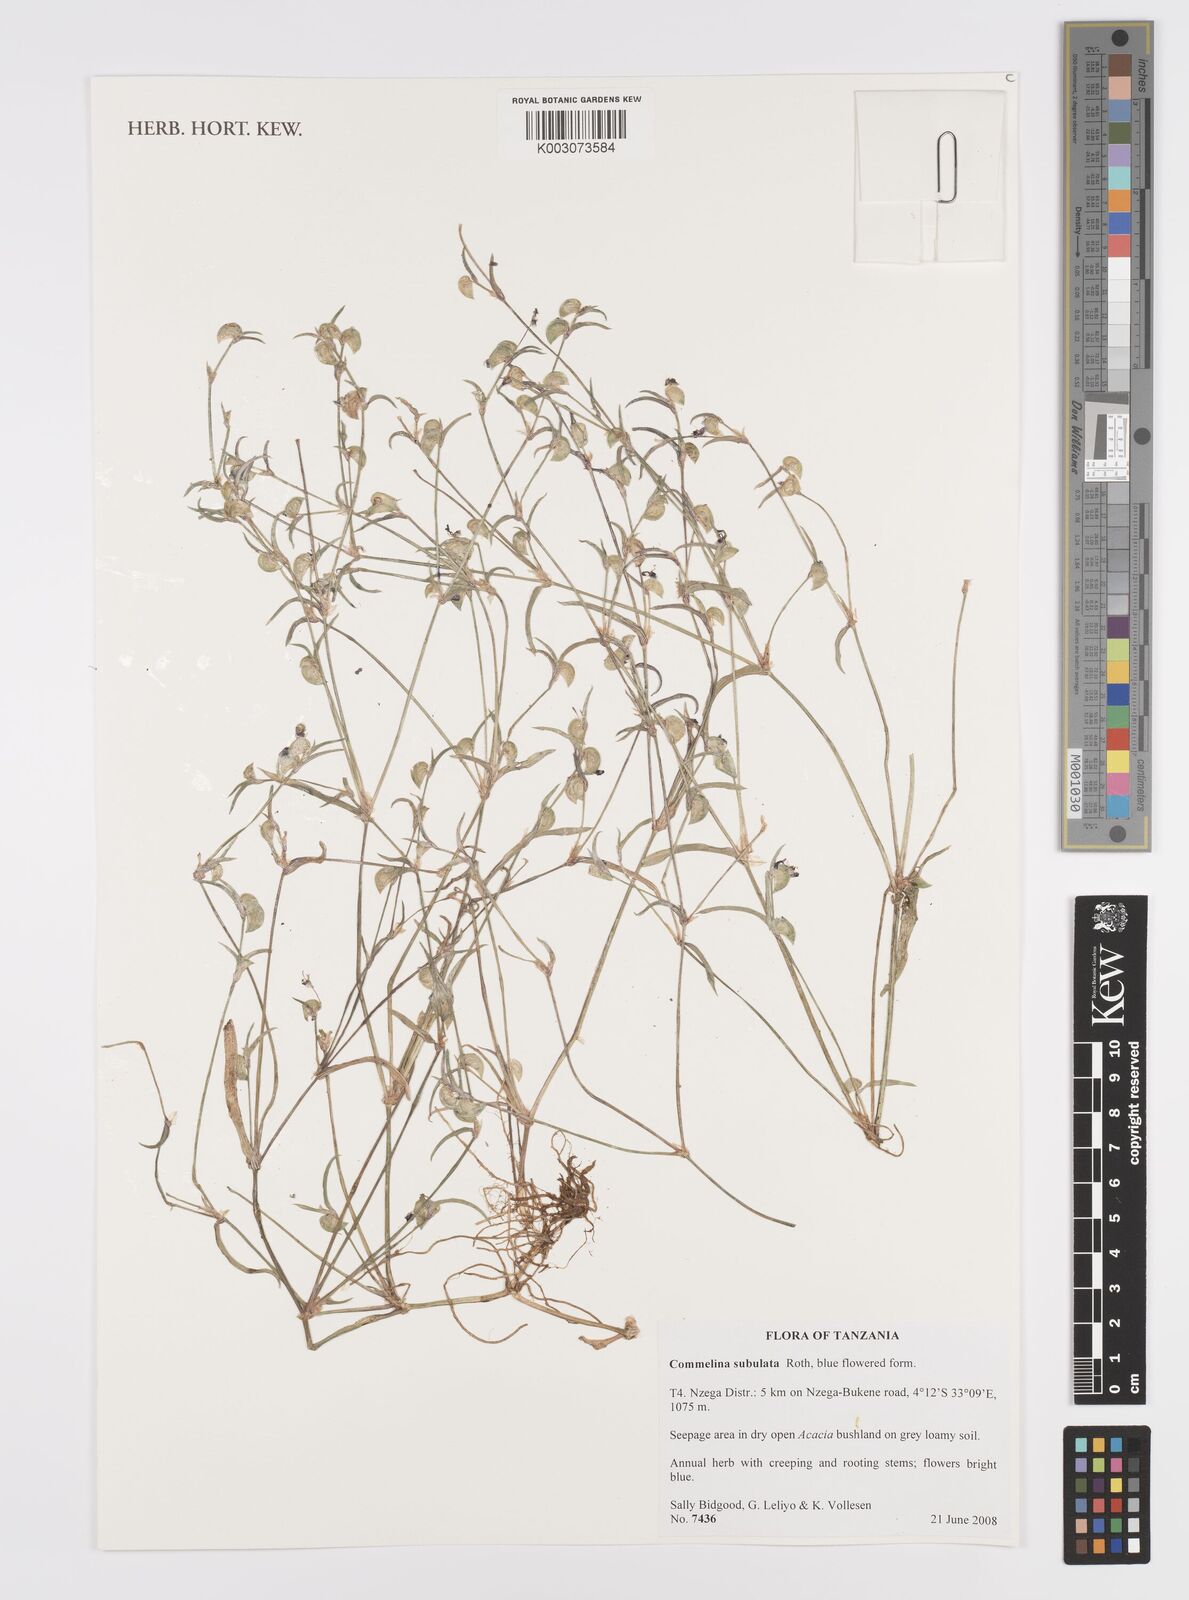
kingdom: Plantae
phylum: Tracheophyta
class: Liliopsida
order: Commelinales
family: Commelinaceae
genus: Commelina
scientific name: Commelina subulata
